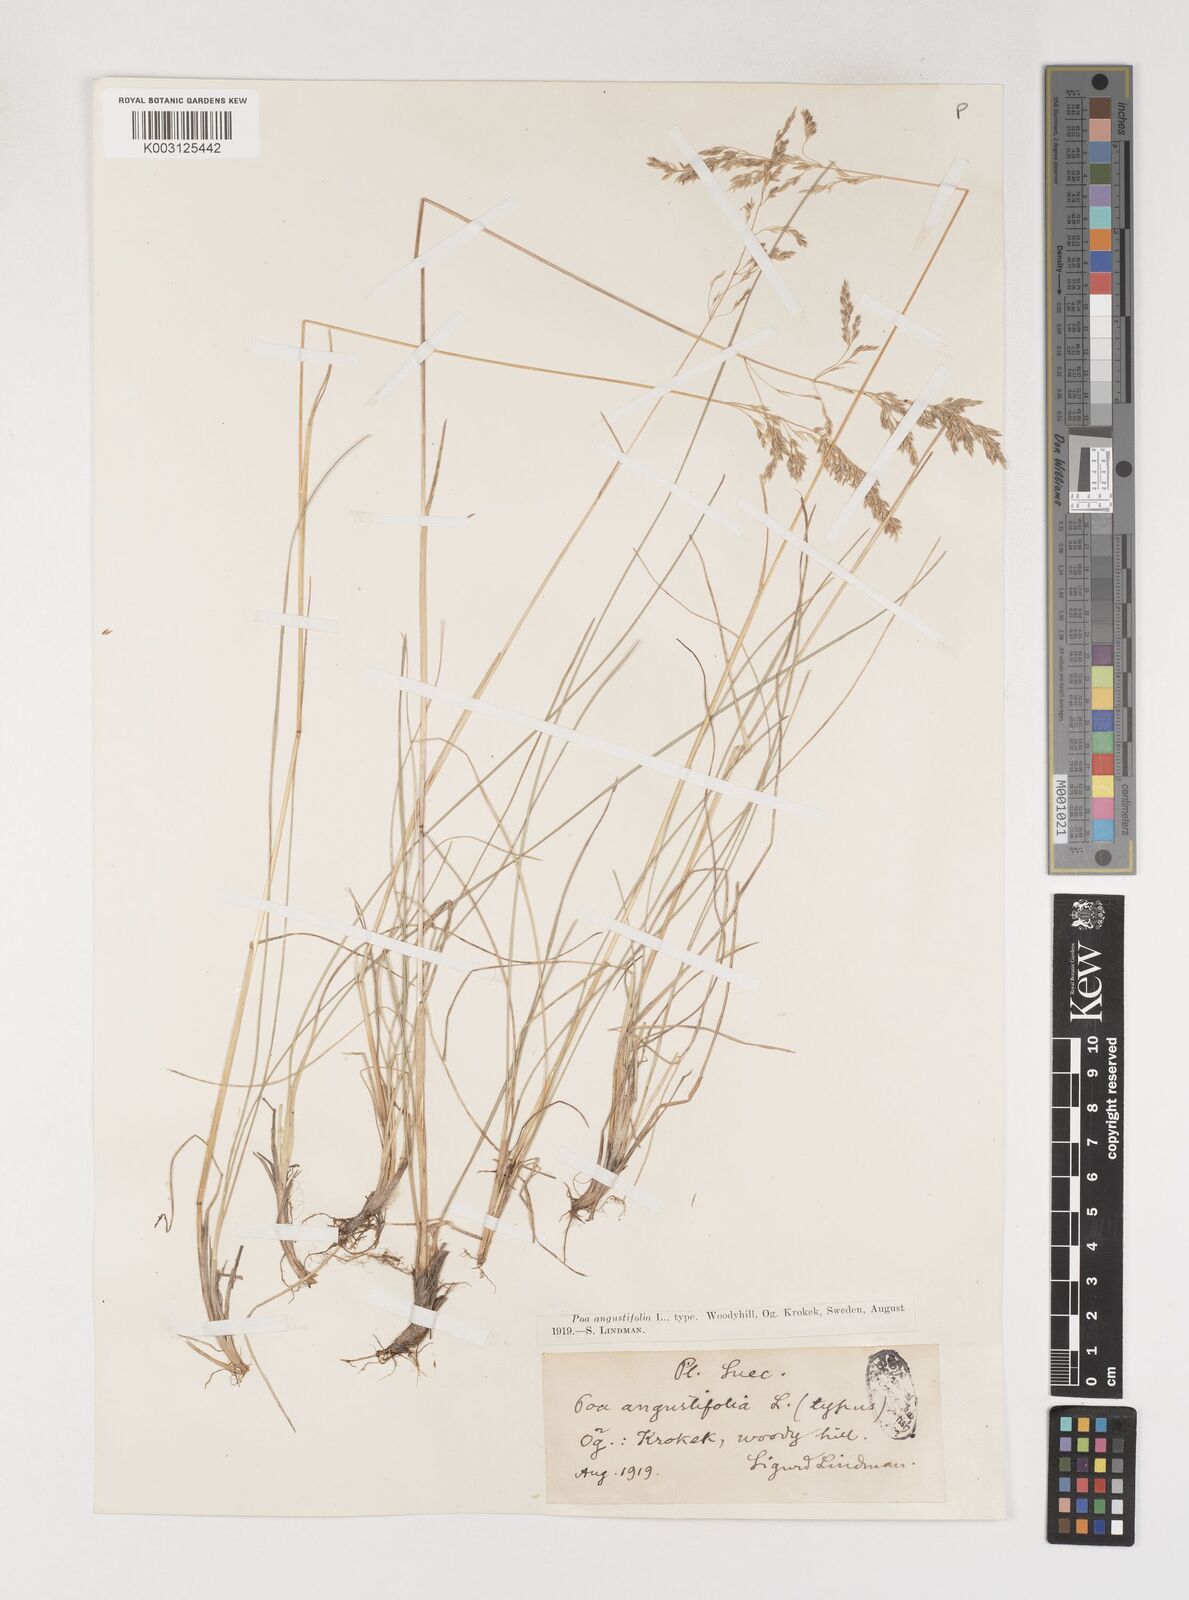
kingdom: Plantae
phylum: Tracheophyta
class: Liliopsida
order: Poales
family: Poaceae
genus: Poa
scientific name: Poa angustifolia
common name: Narrow-leaved meadow-grass
